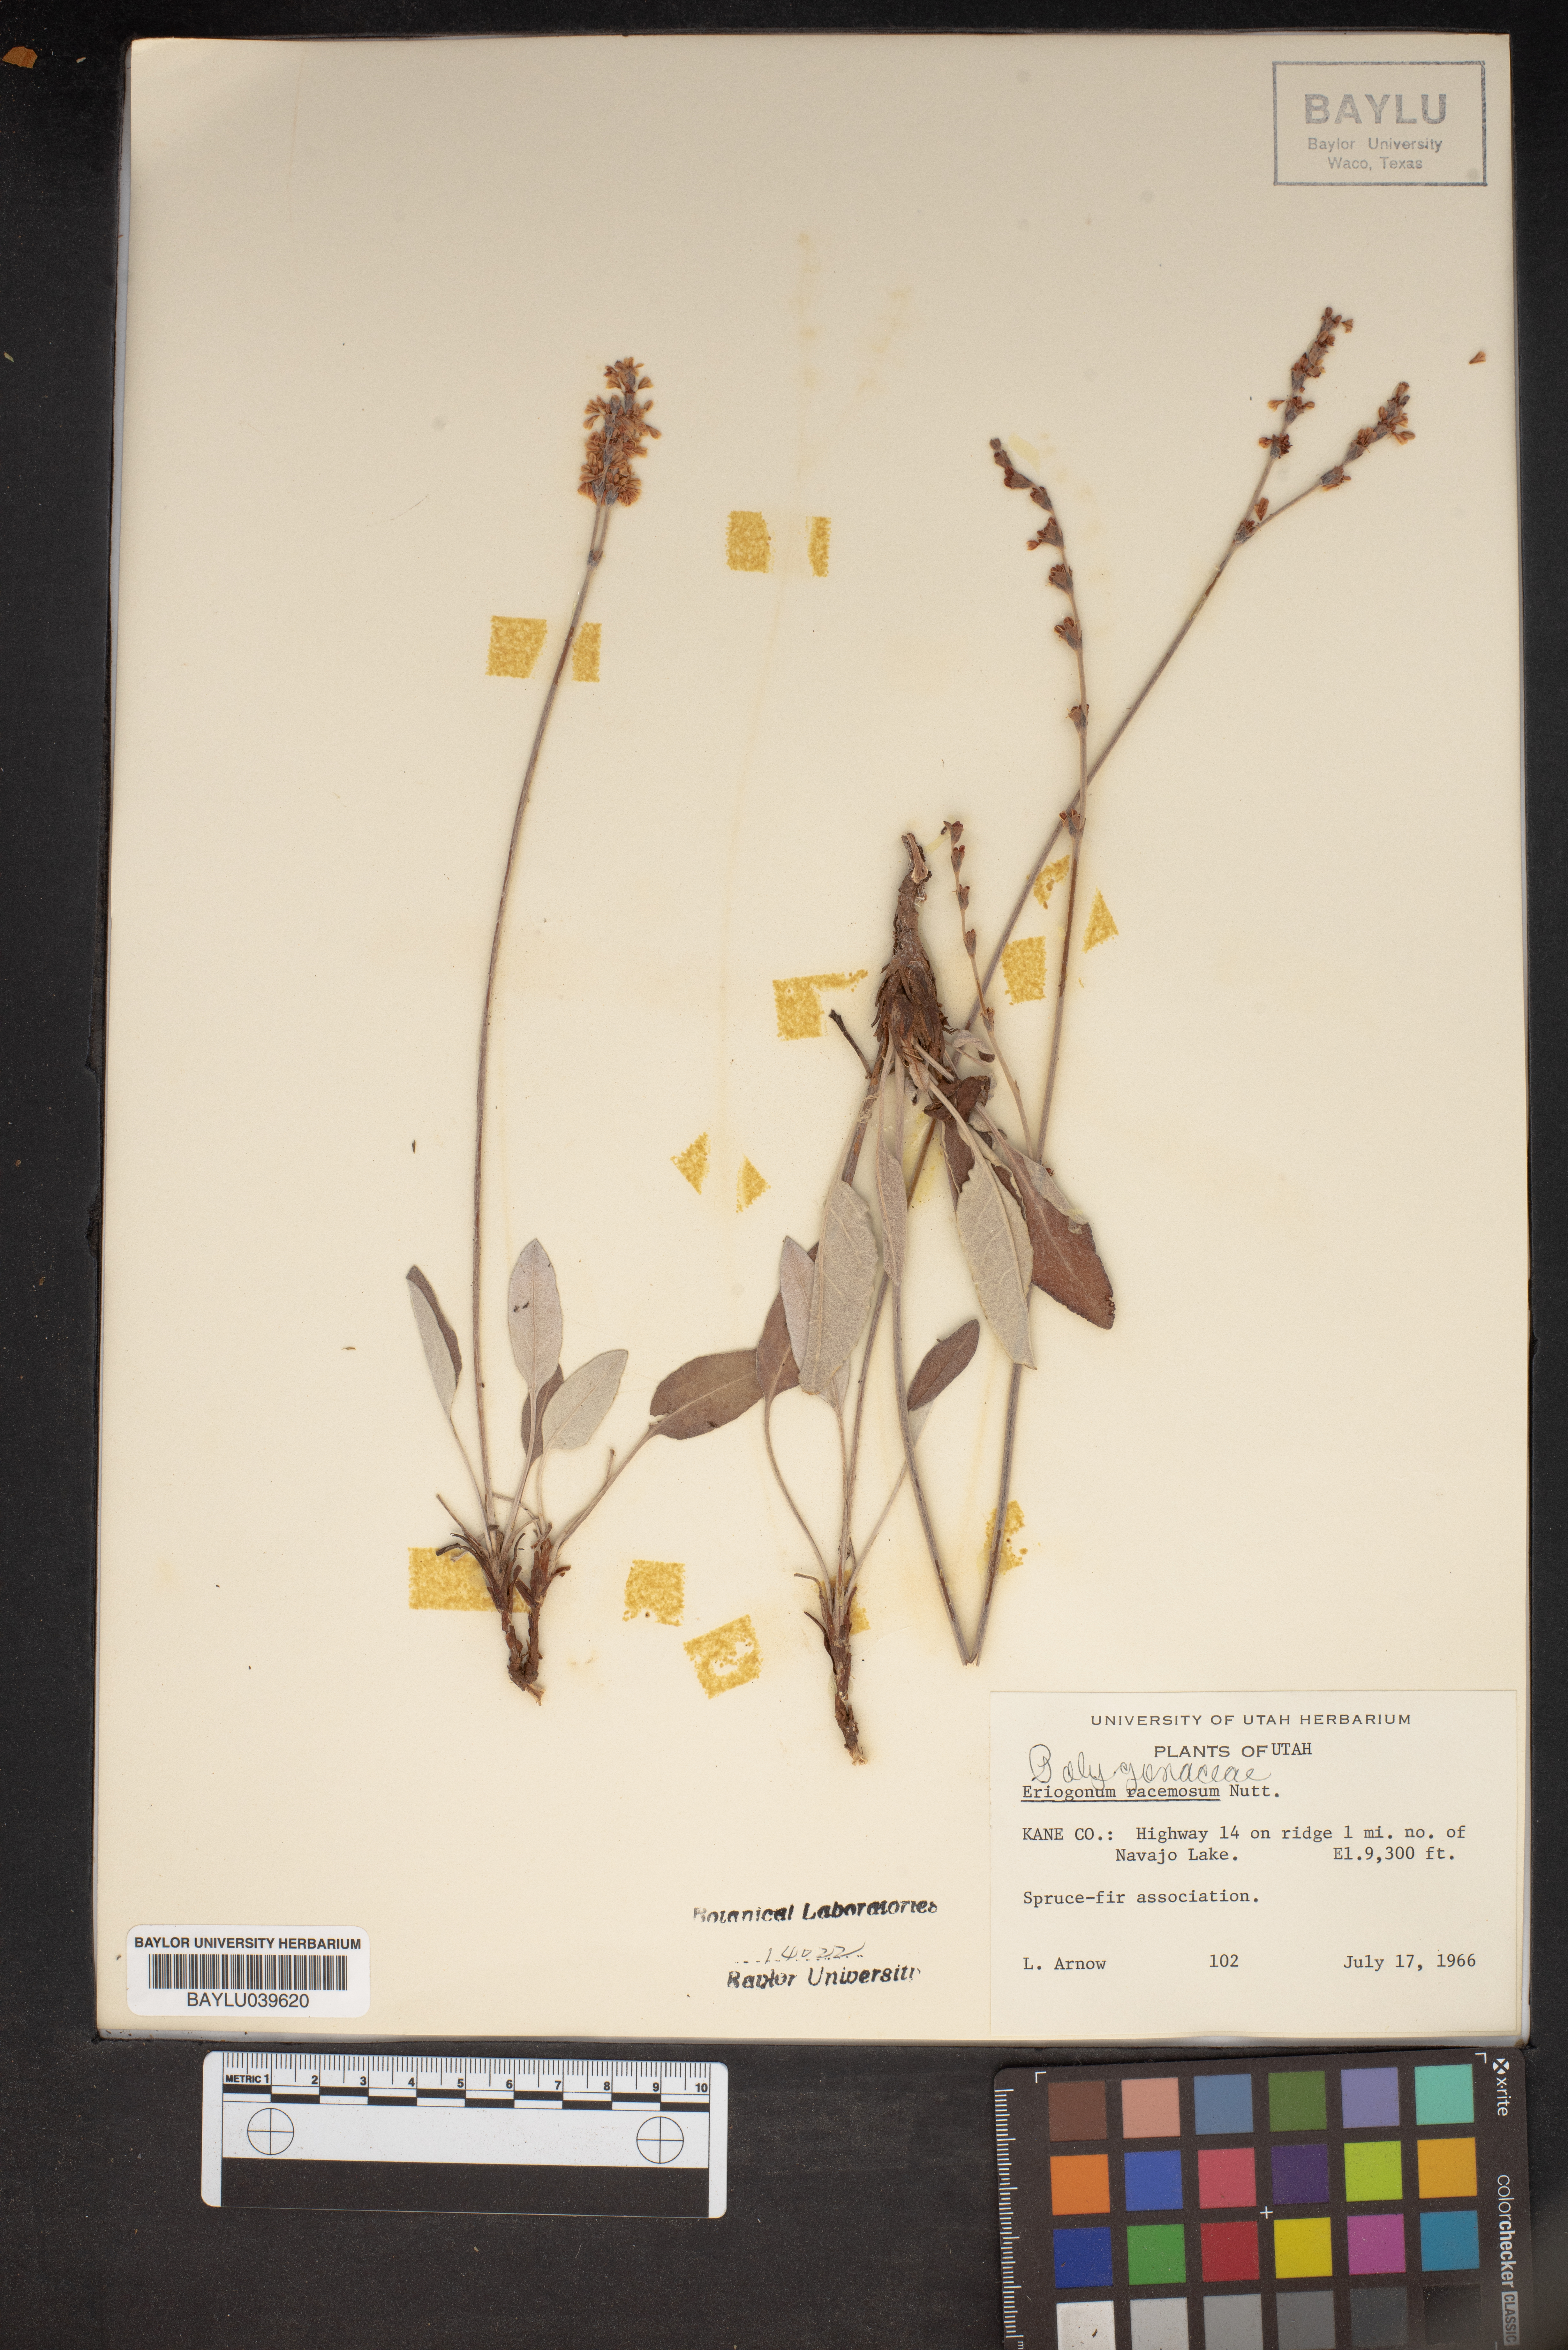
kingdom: Plantae
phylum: Tracheophyta
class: Magnoliopsida
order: Caryophyllales
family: Polygonaceae
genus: Eriogonum
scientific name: Eriogonum racemosum
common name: Redroot wild buckwheat
